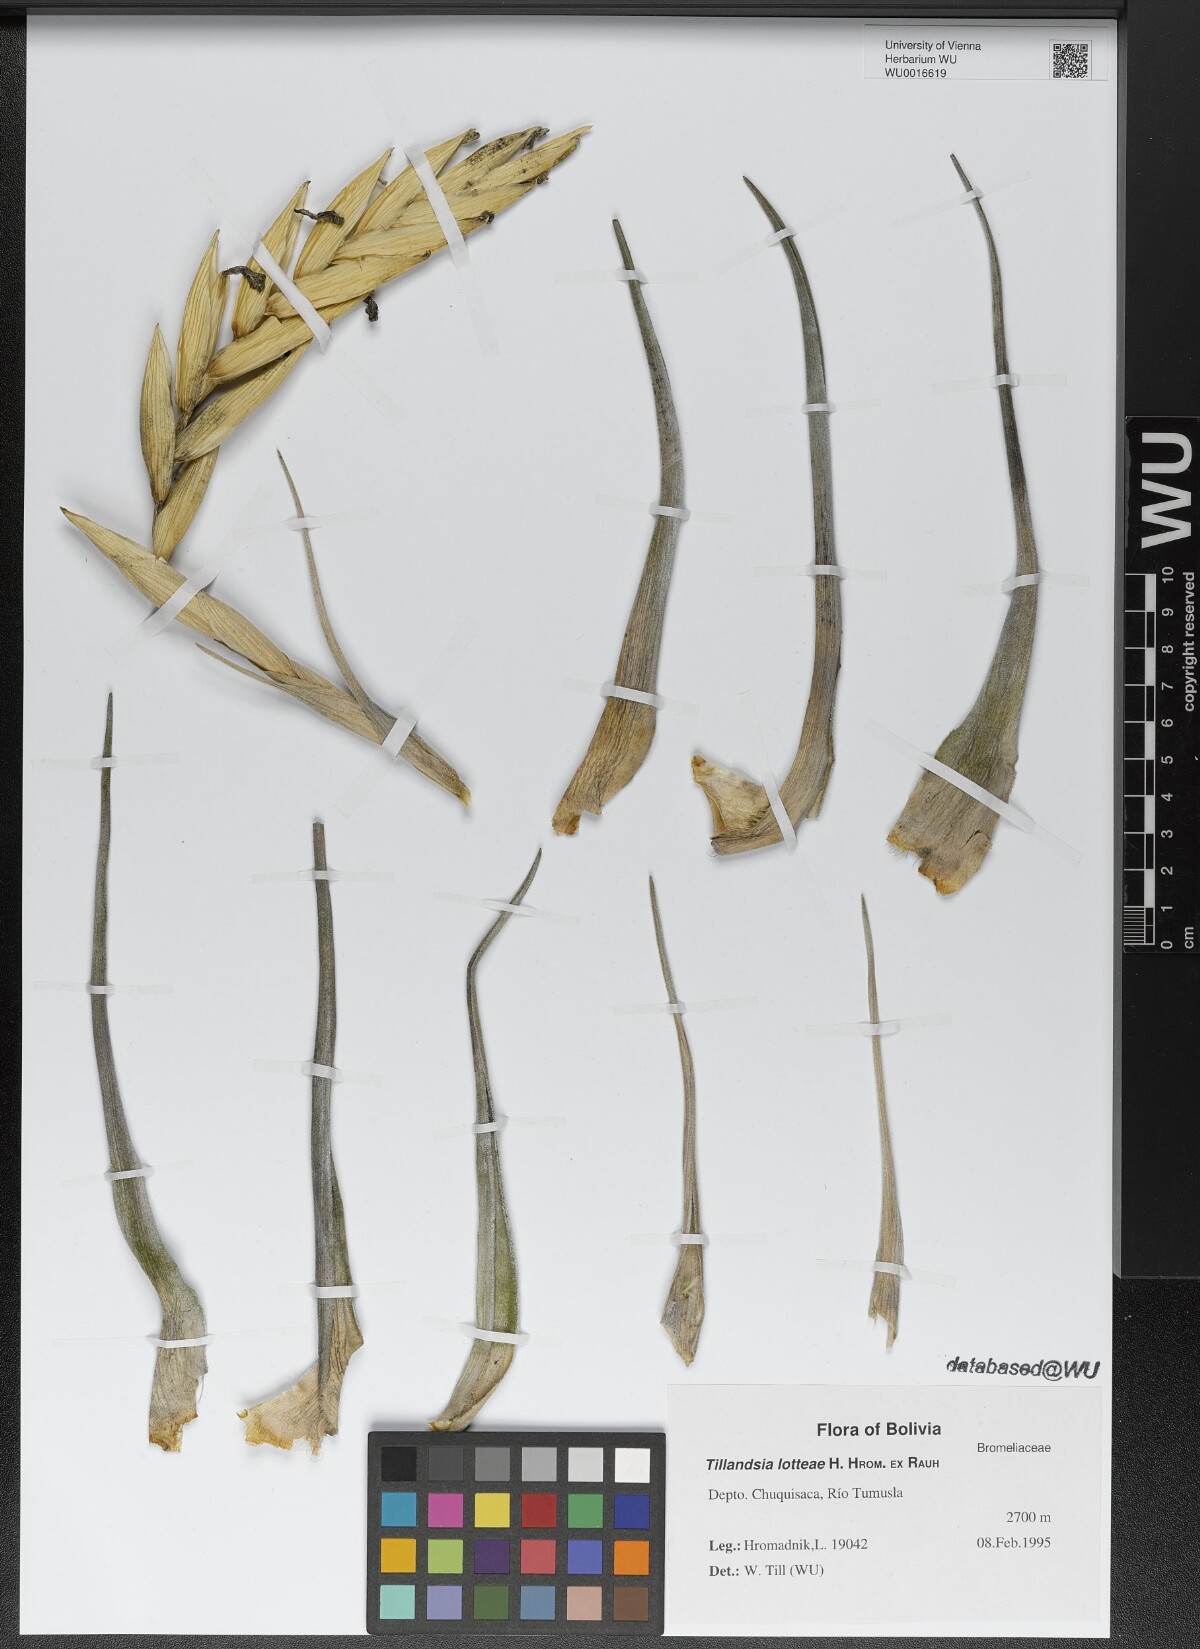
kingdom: Plantae
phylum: Tracheophyta
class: Liliopsida
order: Poales
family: Bromeliaceae
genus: Tillandsia
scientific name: Tillandsia lotteae
